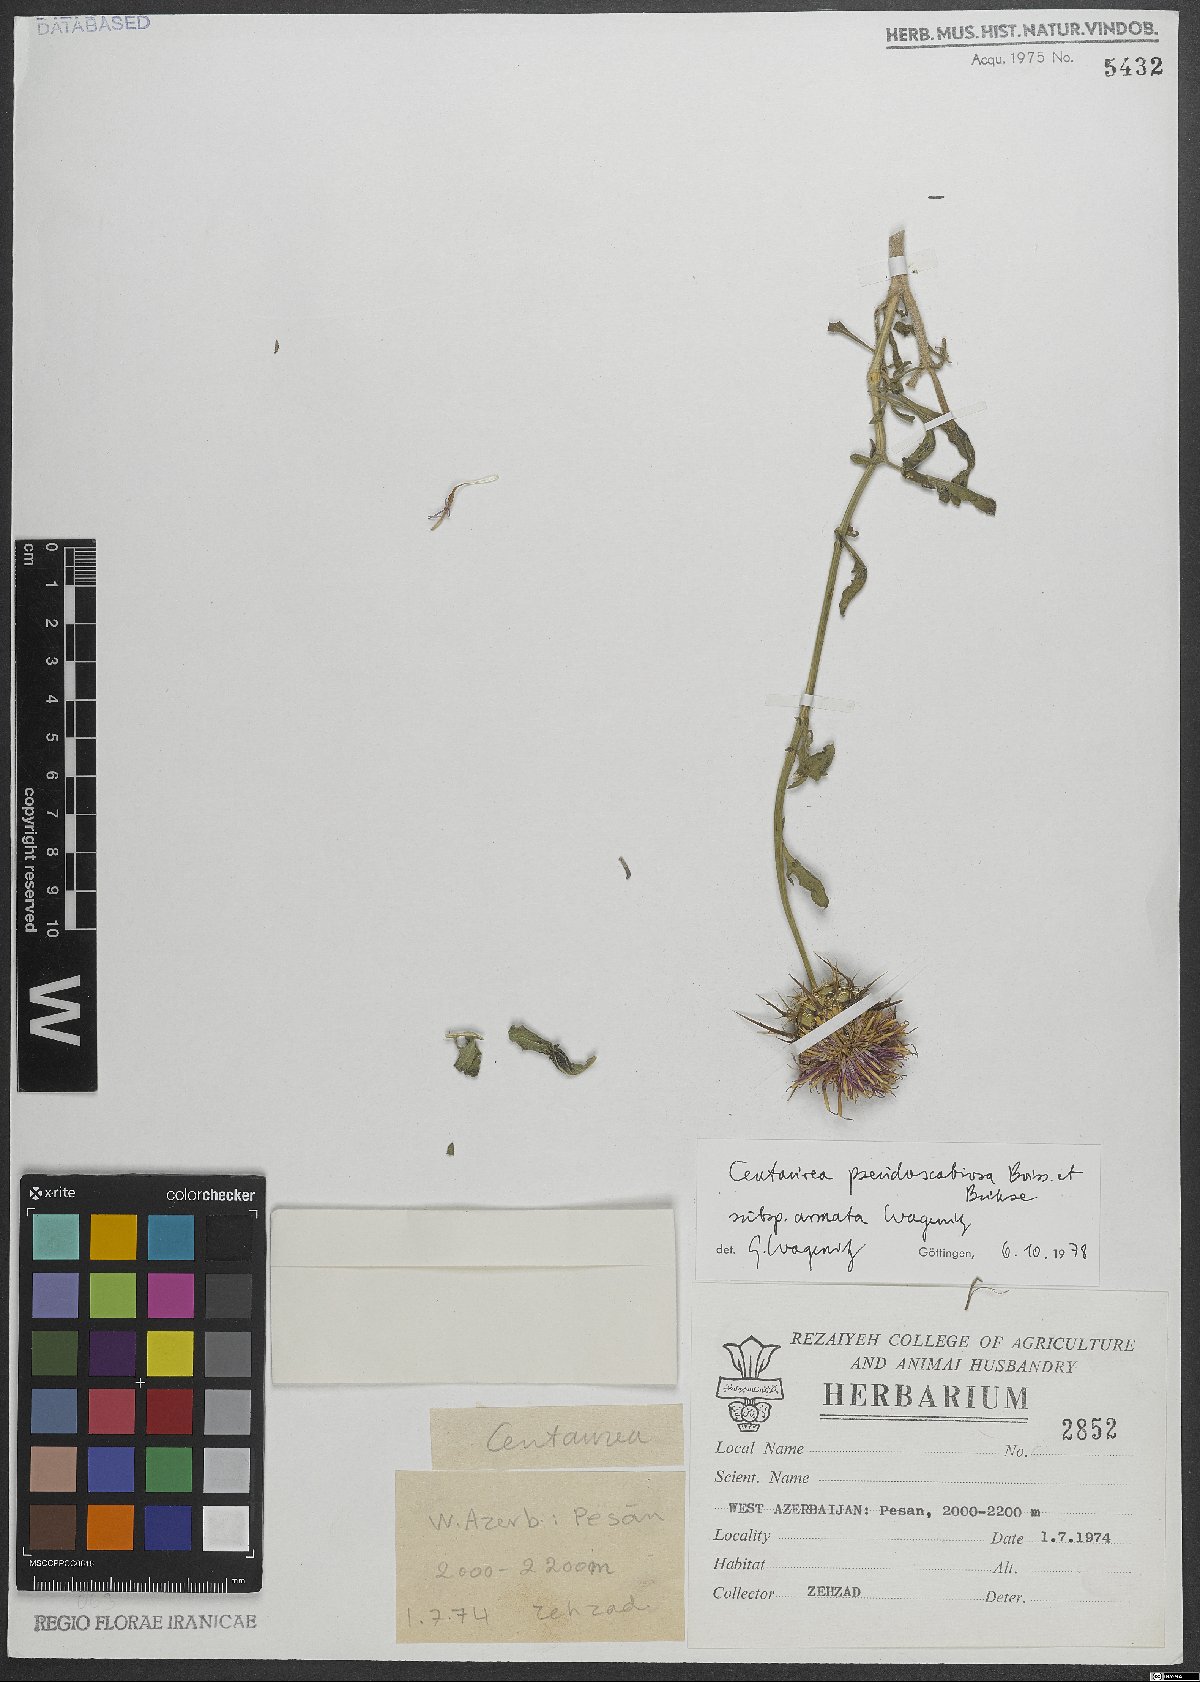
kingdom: Plantae
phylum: Tracheophyta
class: Magnoliopsida
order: Asterales
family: Asteraceae
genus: Centaurea
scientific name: Centaurea pseudoscabiosa
